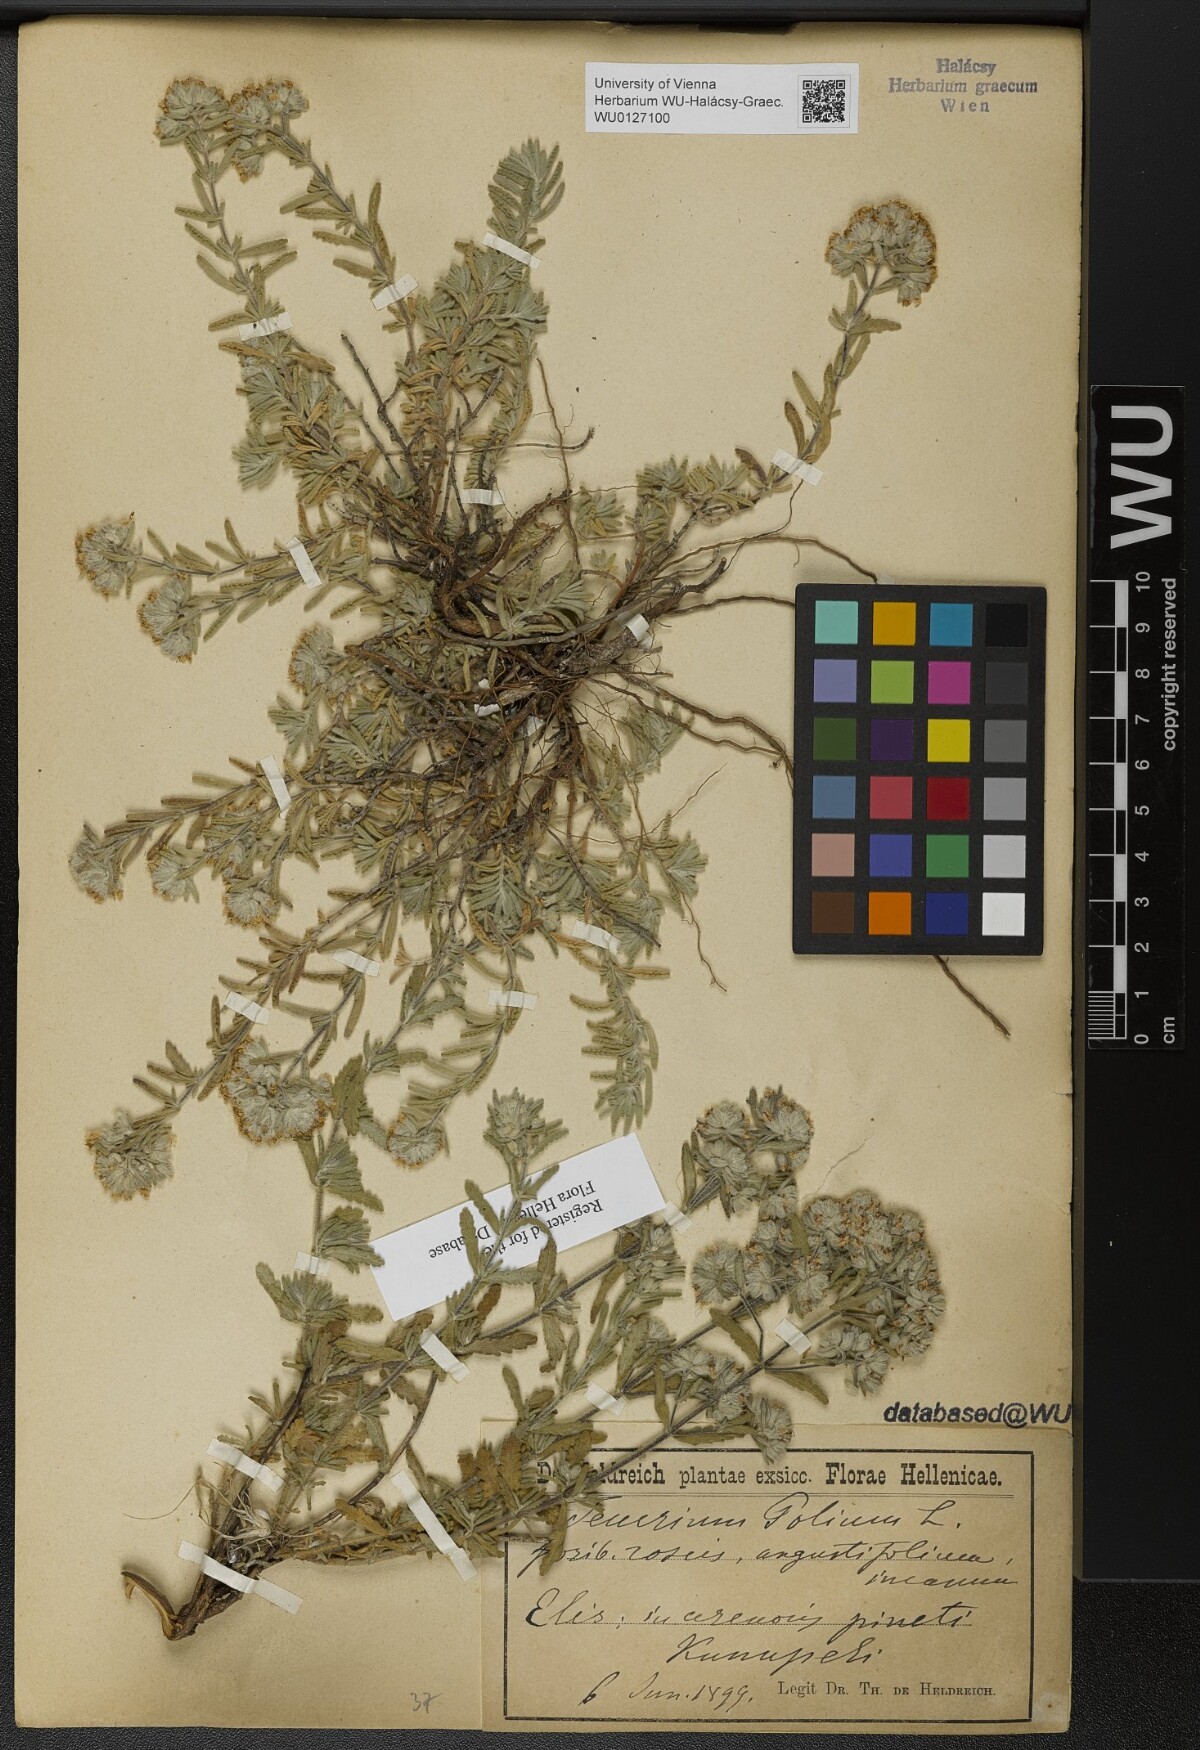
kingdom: Plantae
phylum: Tracheophyta
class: Magnoliopsida
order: Lamiales
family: Lamiaceae
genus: Teucrium
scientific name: Teucrium polium
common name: Poley
